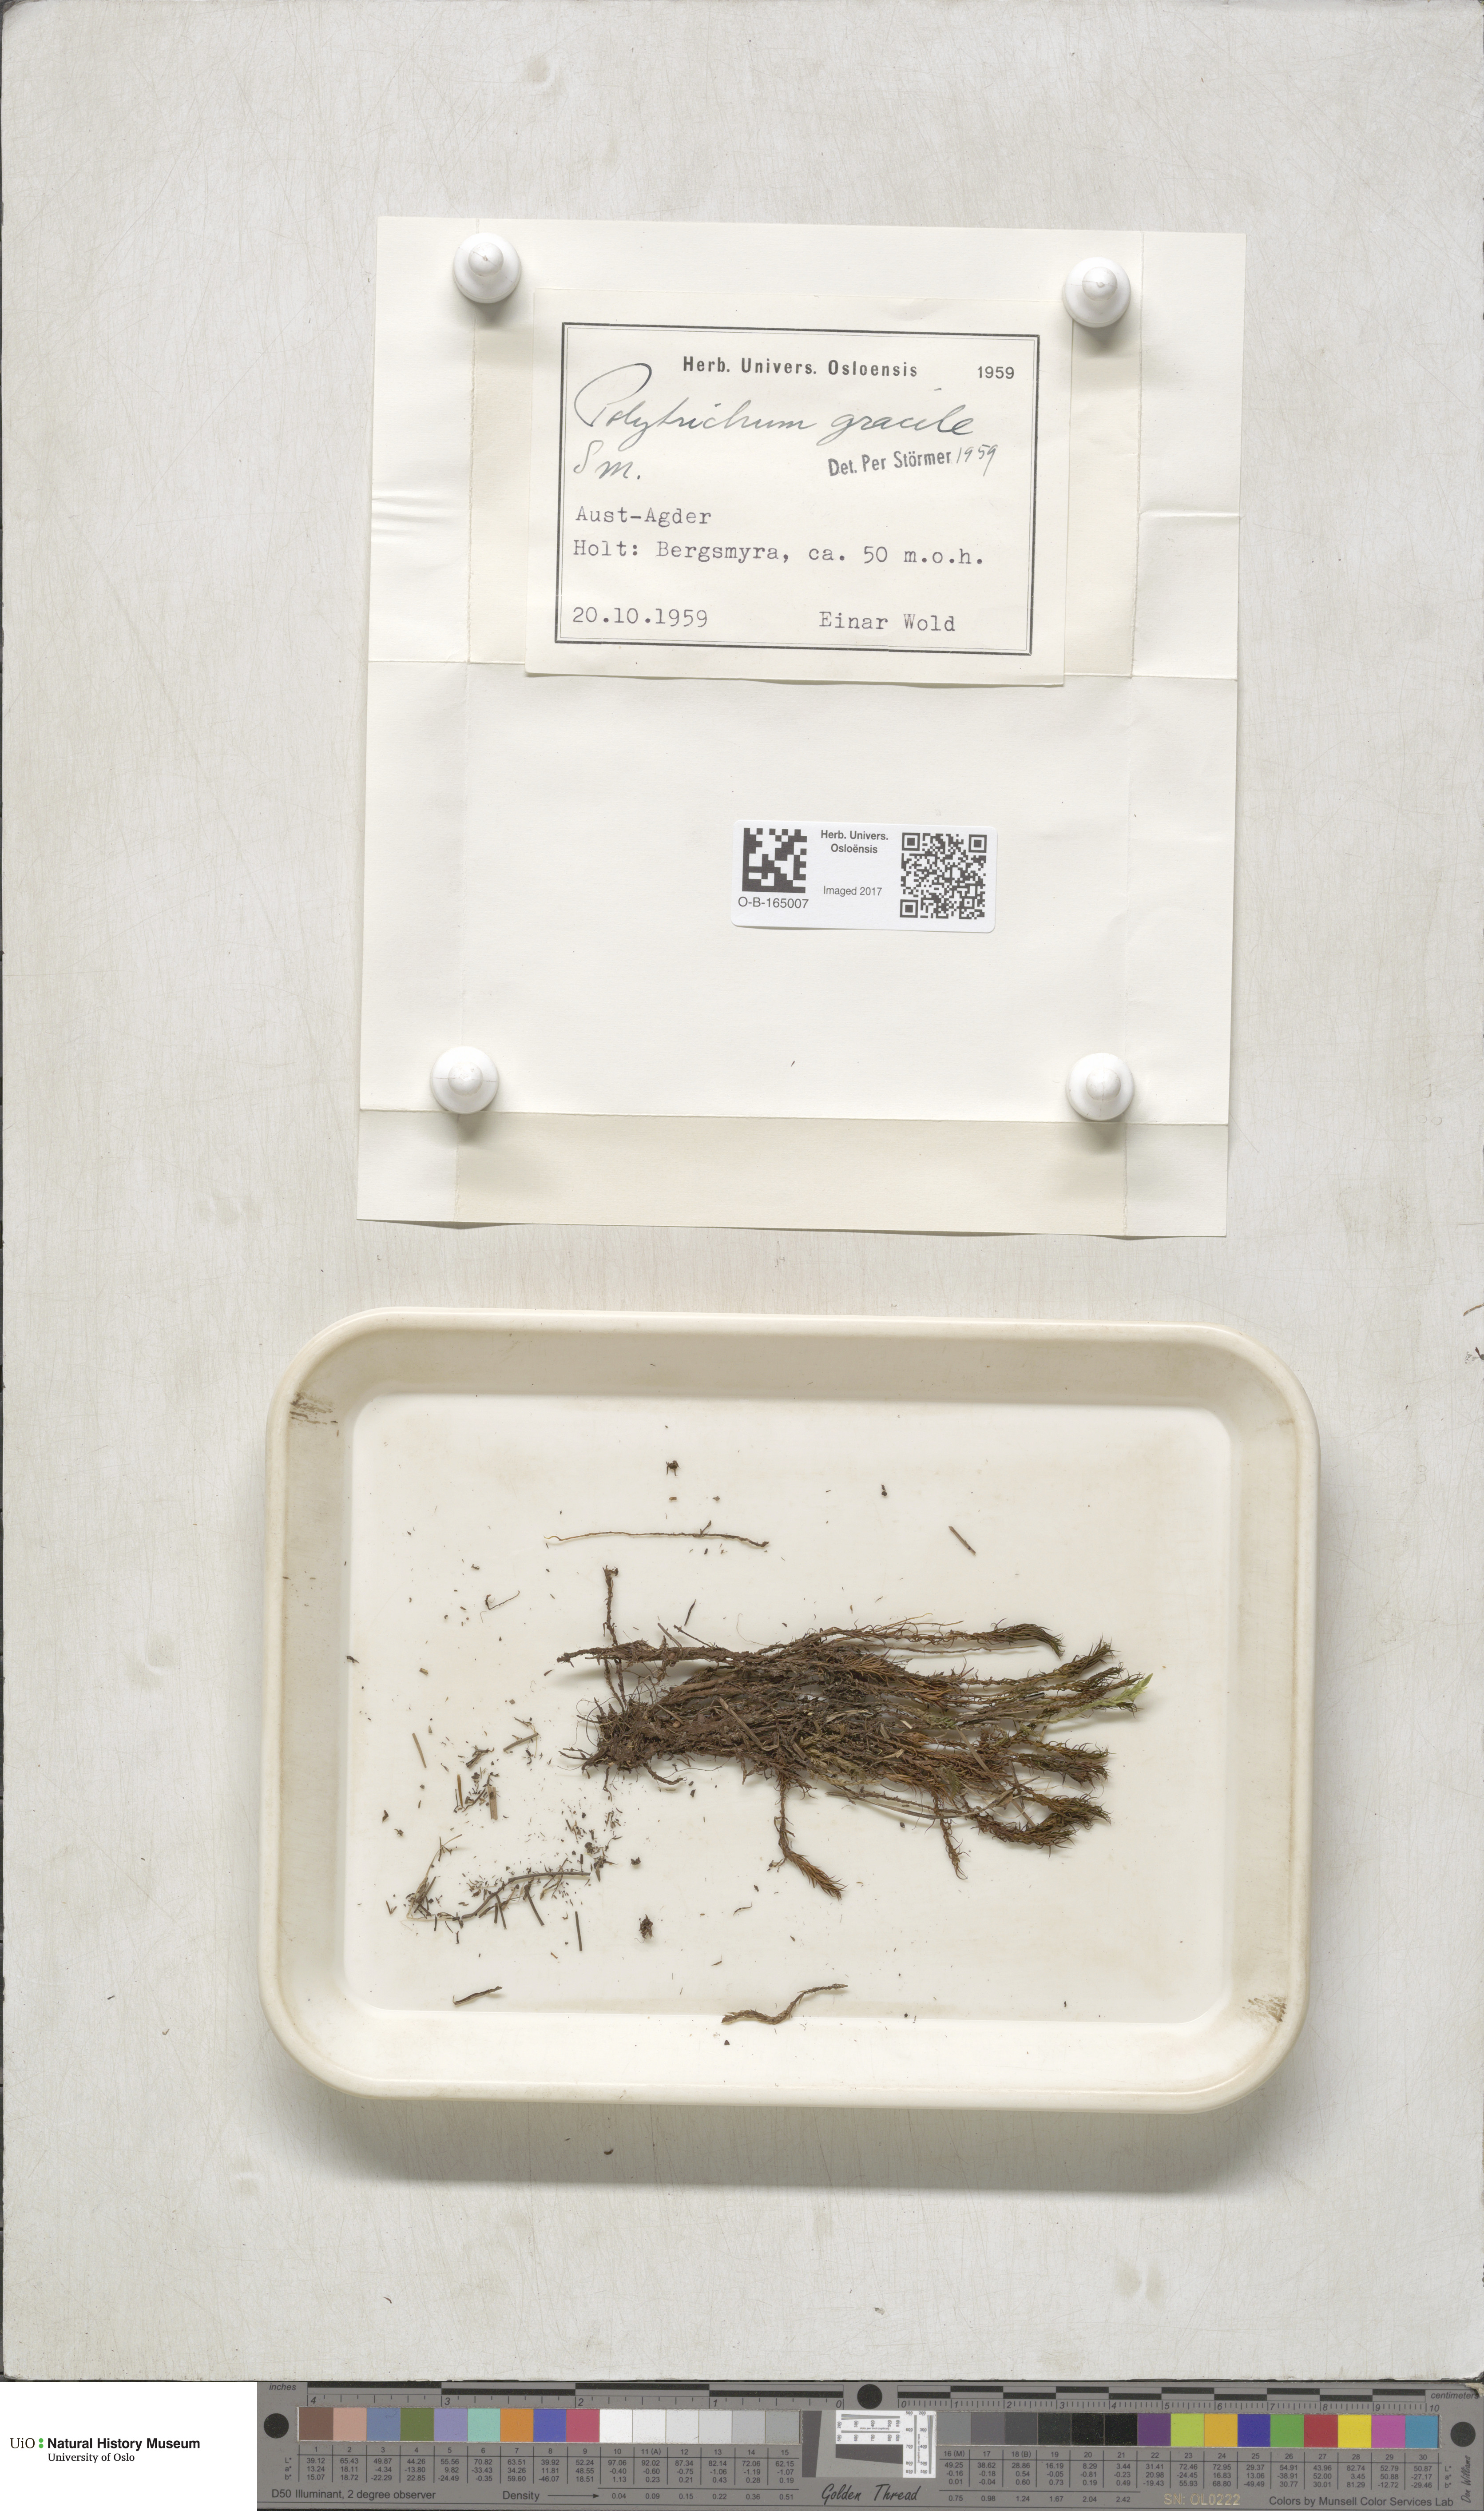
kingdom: Plantae
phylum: Bryophyta
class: Polytrichopsida
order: Polytrichales
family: Polytrichaceae
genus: Polytrichum
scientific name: Polytrichum longisetum
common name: Long-stalked haircap moss
